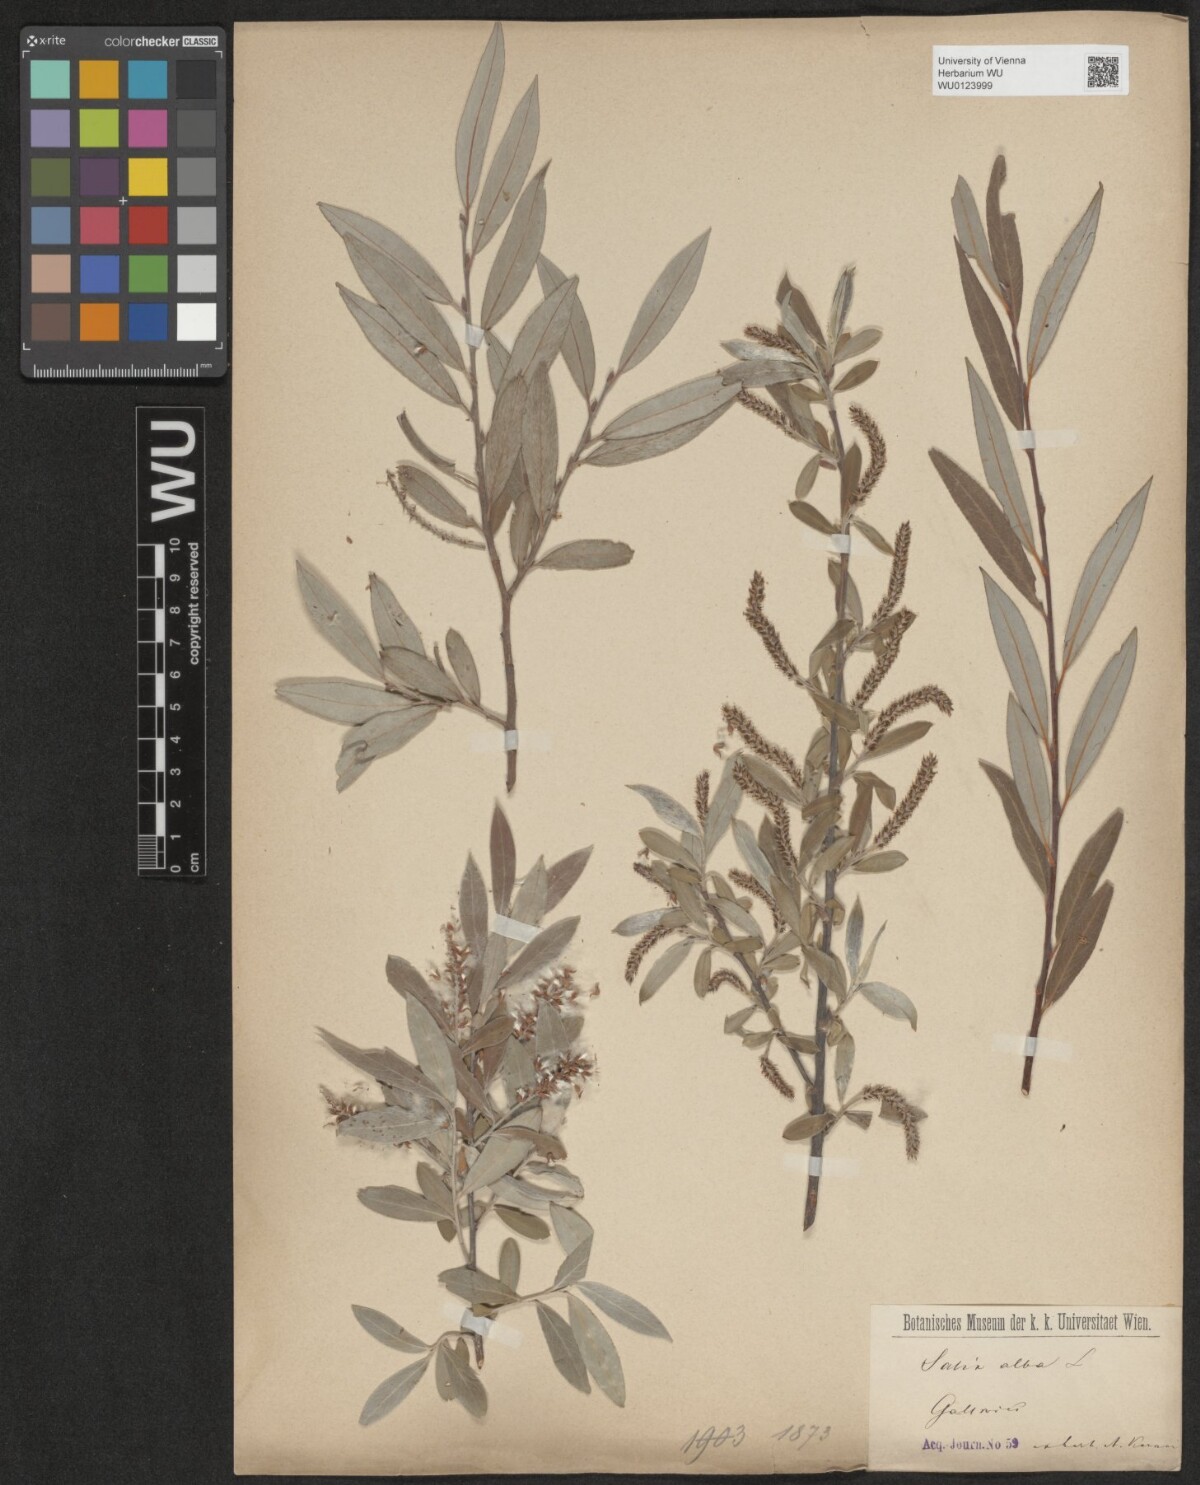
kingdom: Plantae
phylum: Tracheophyta
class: Magnoliopsida
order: Malpighiales
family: Salicaceae
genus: Salix
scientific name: Salix alba
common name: White willow
